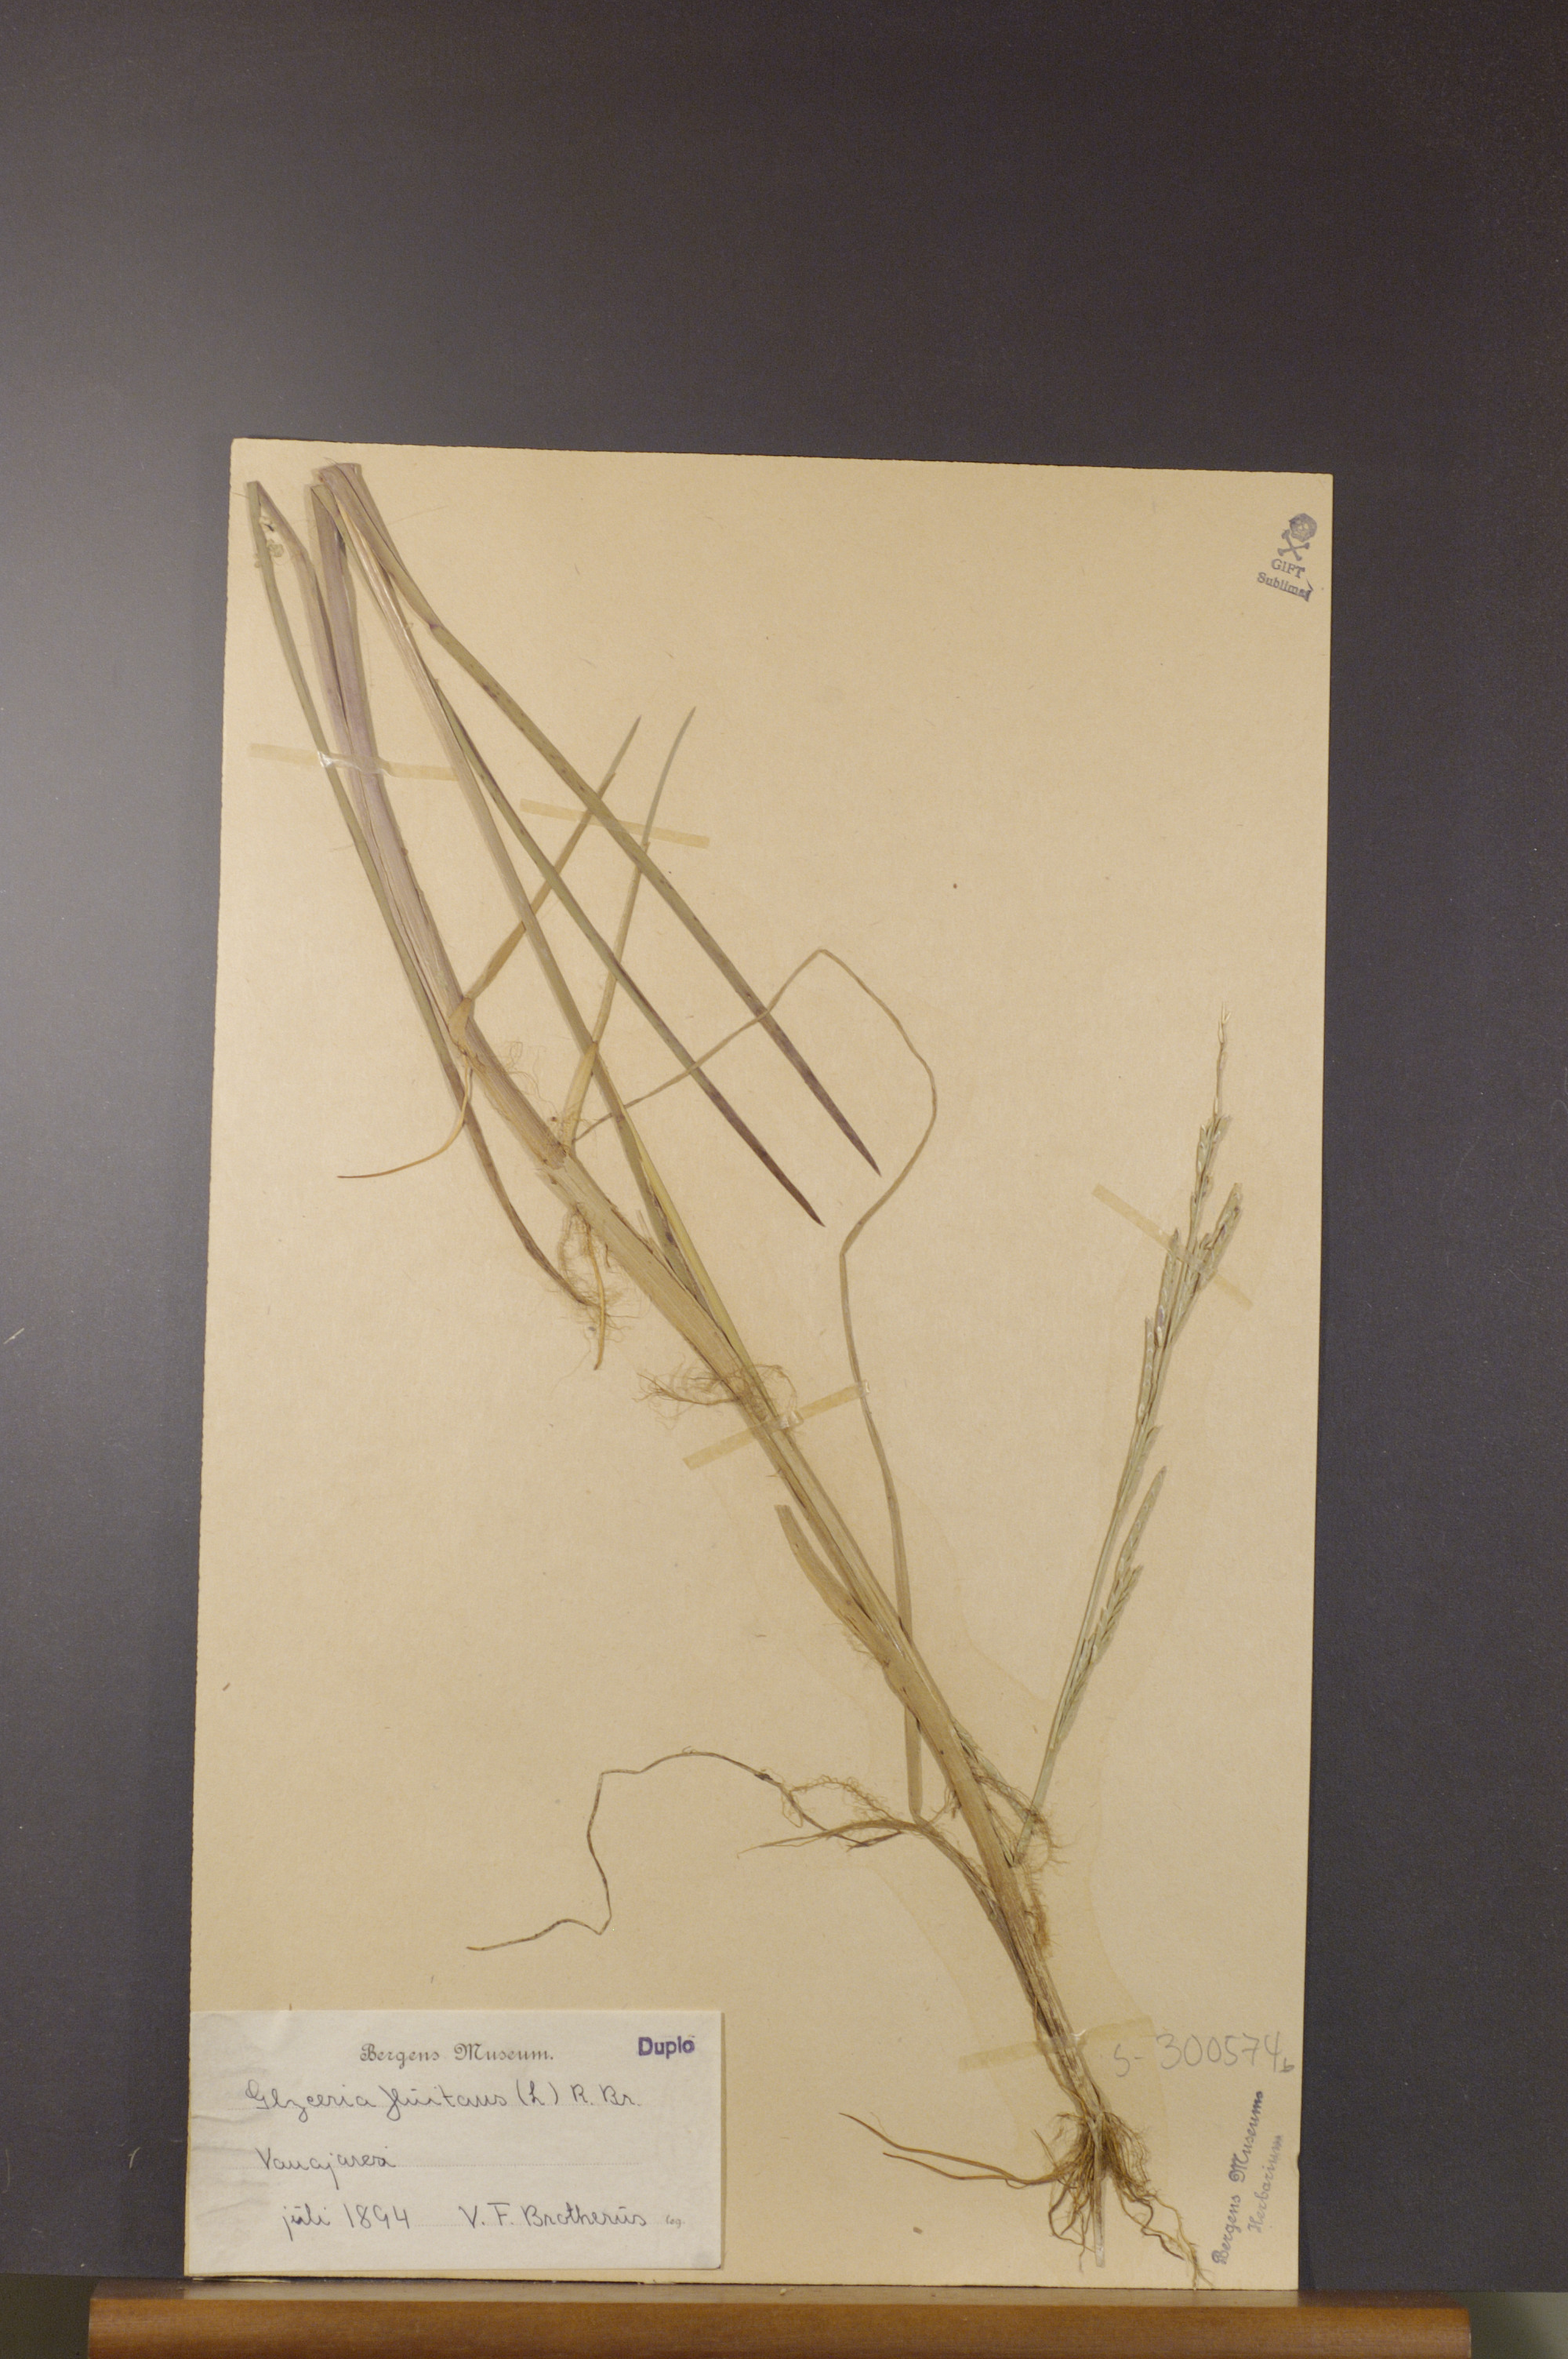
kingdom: Plantae
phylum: Tracheophyta
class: Liliopsida
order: Poales
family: Poaceae
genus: Glyceria
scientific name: Glyceria fluitans
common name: Floating sweet-grass
